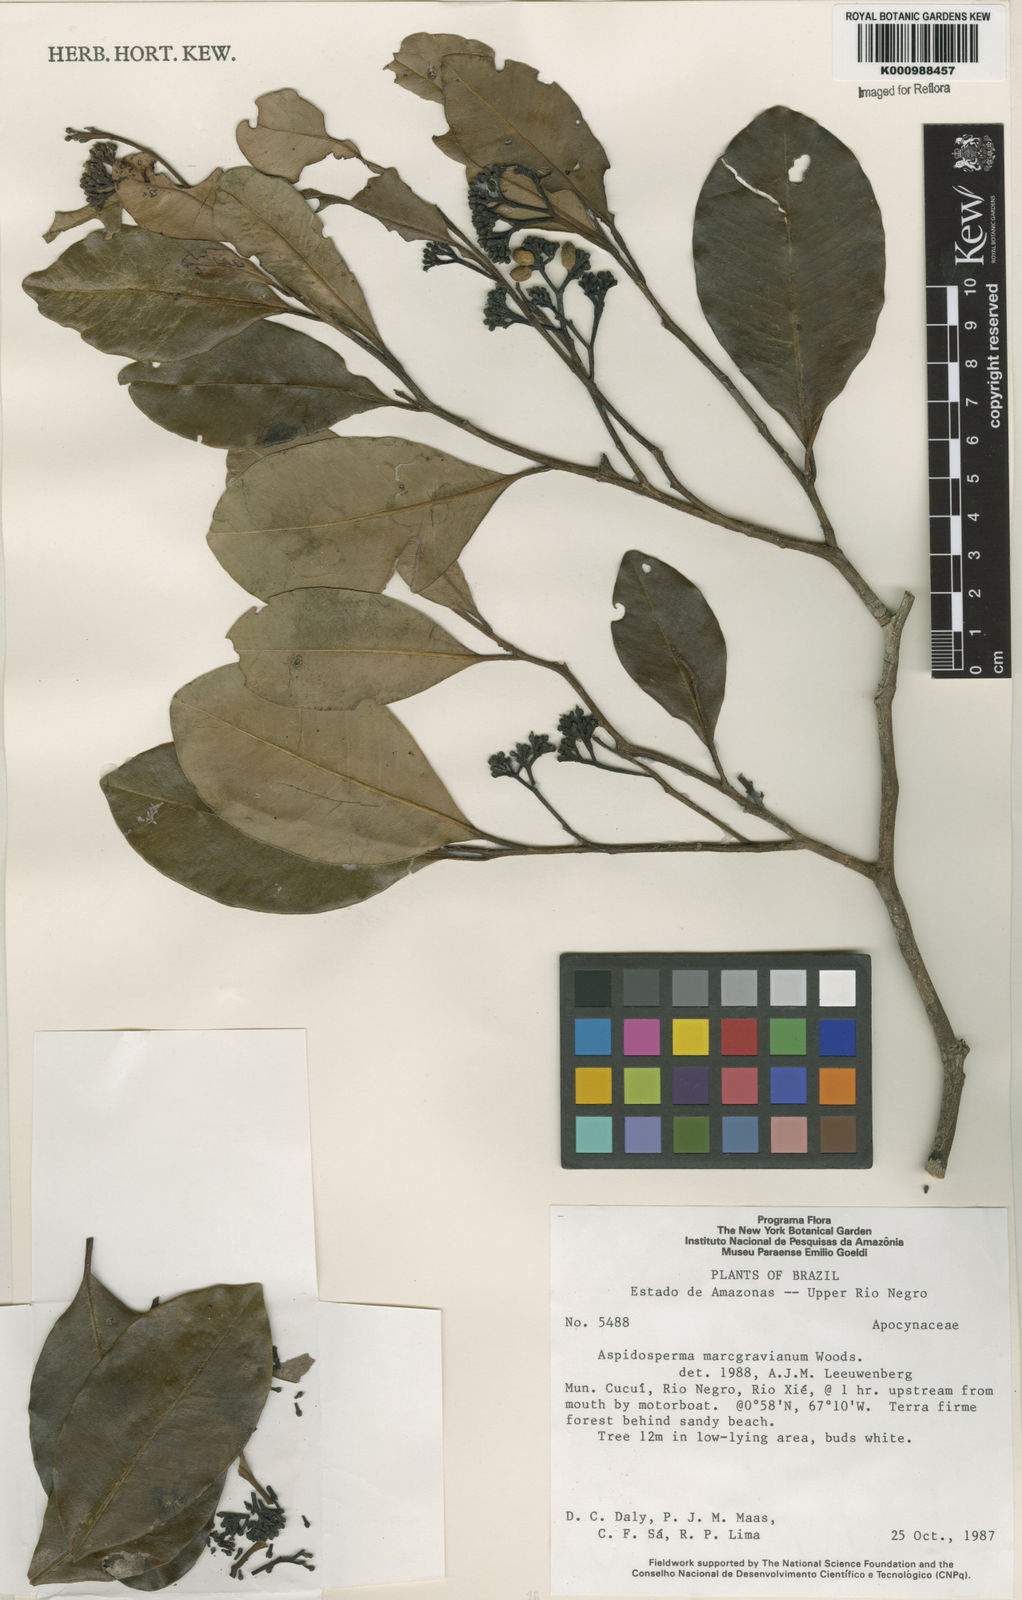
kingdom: Plantae
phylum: Tracheophyta
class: Magnoliopsida
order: Gentianales
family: Apocynaceae
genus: Aspidosperma
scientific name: Aspidosperma excelsum
